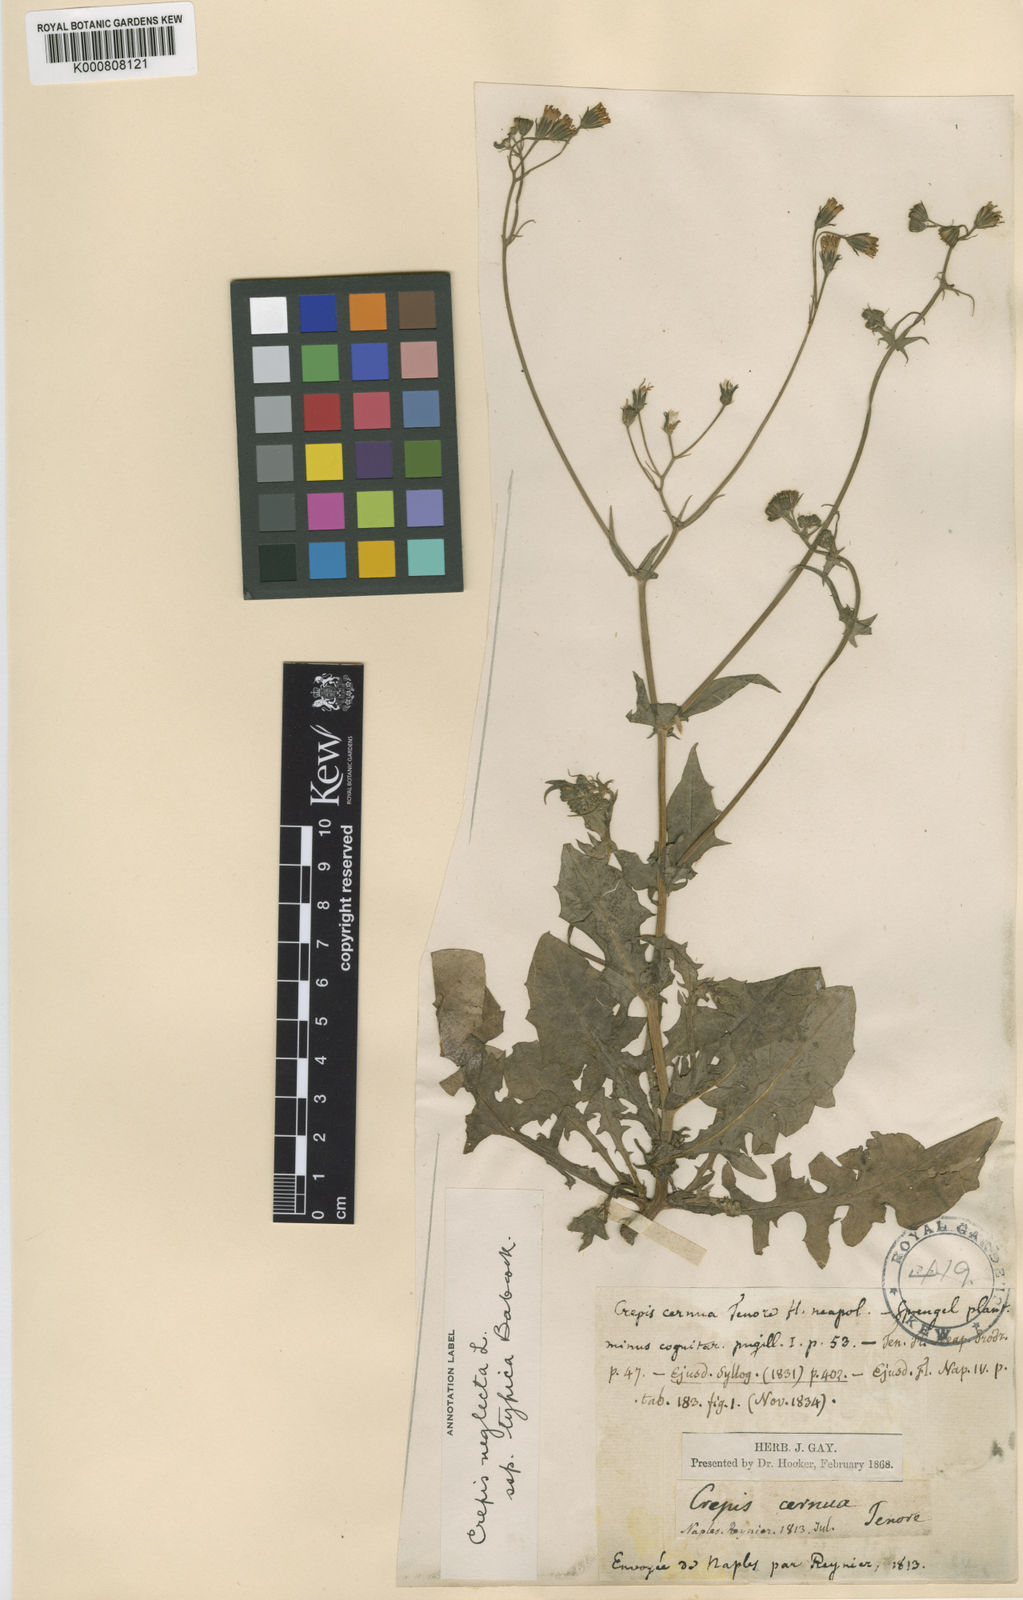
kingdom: Plantae
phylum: Tracheophyta
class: Magnoliopsida
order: Asterales
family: Asteraceae
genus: Crepis
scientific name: Crepis neglecta
